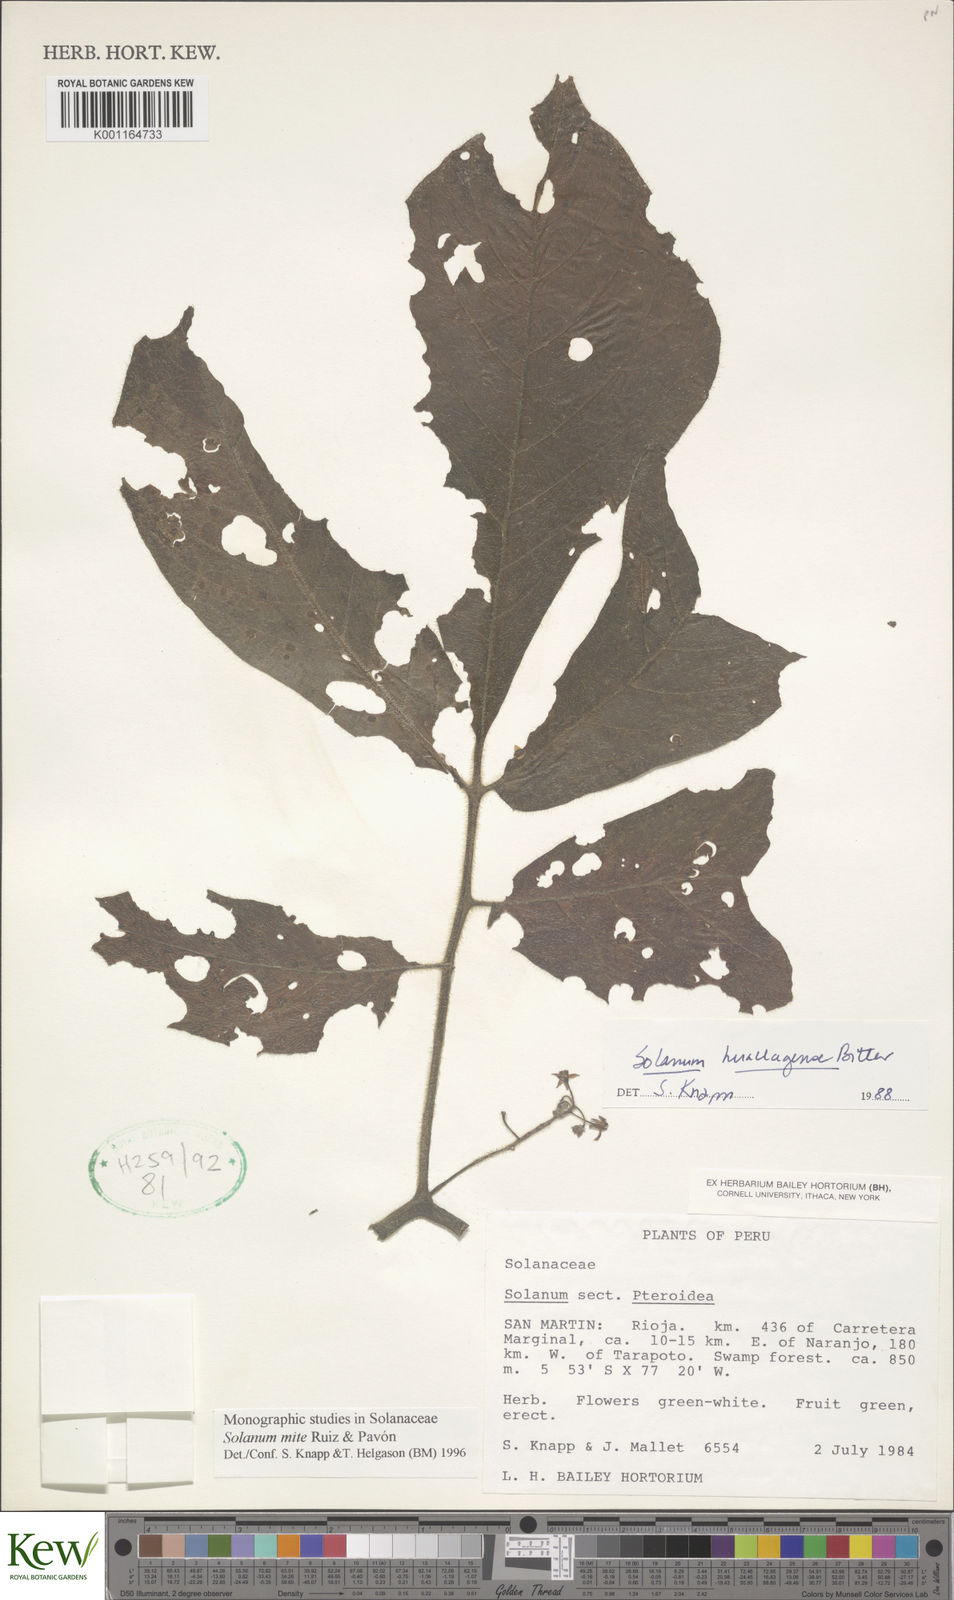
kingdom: Plantae
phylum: Tracheophyta
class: Magnoliopsida
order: Solanales
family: Solanaceae
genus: Solanum
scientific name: Solanum mite
